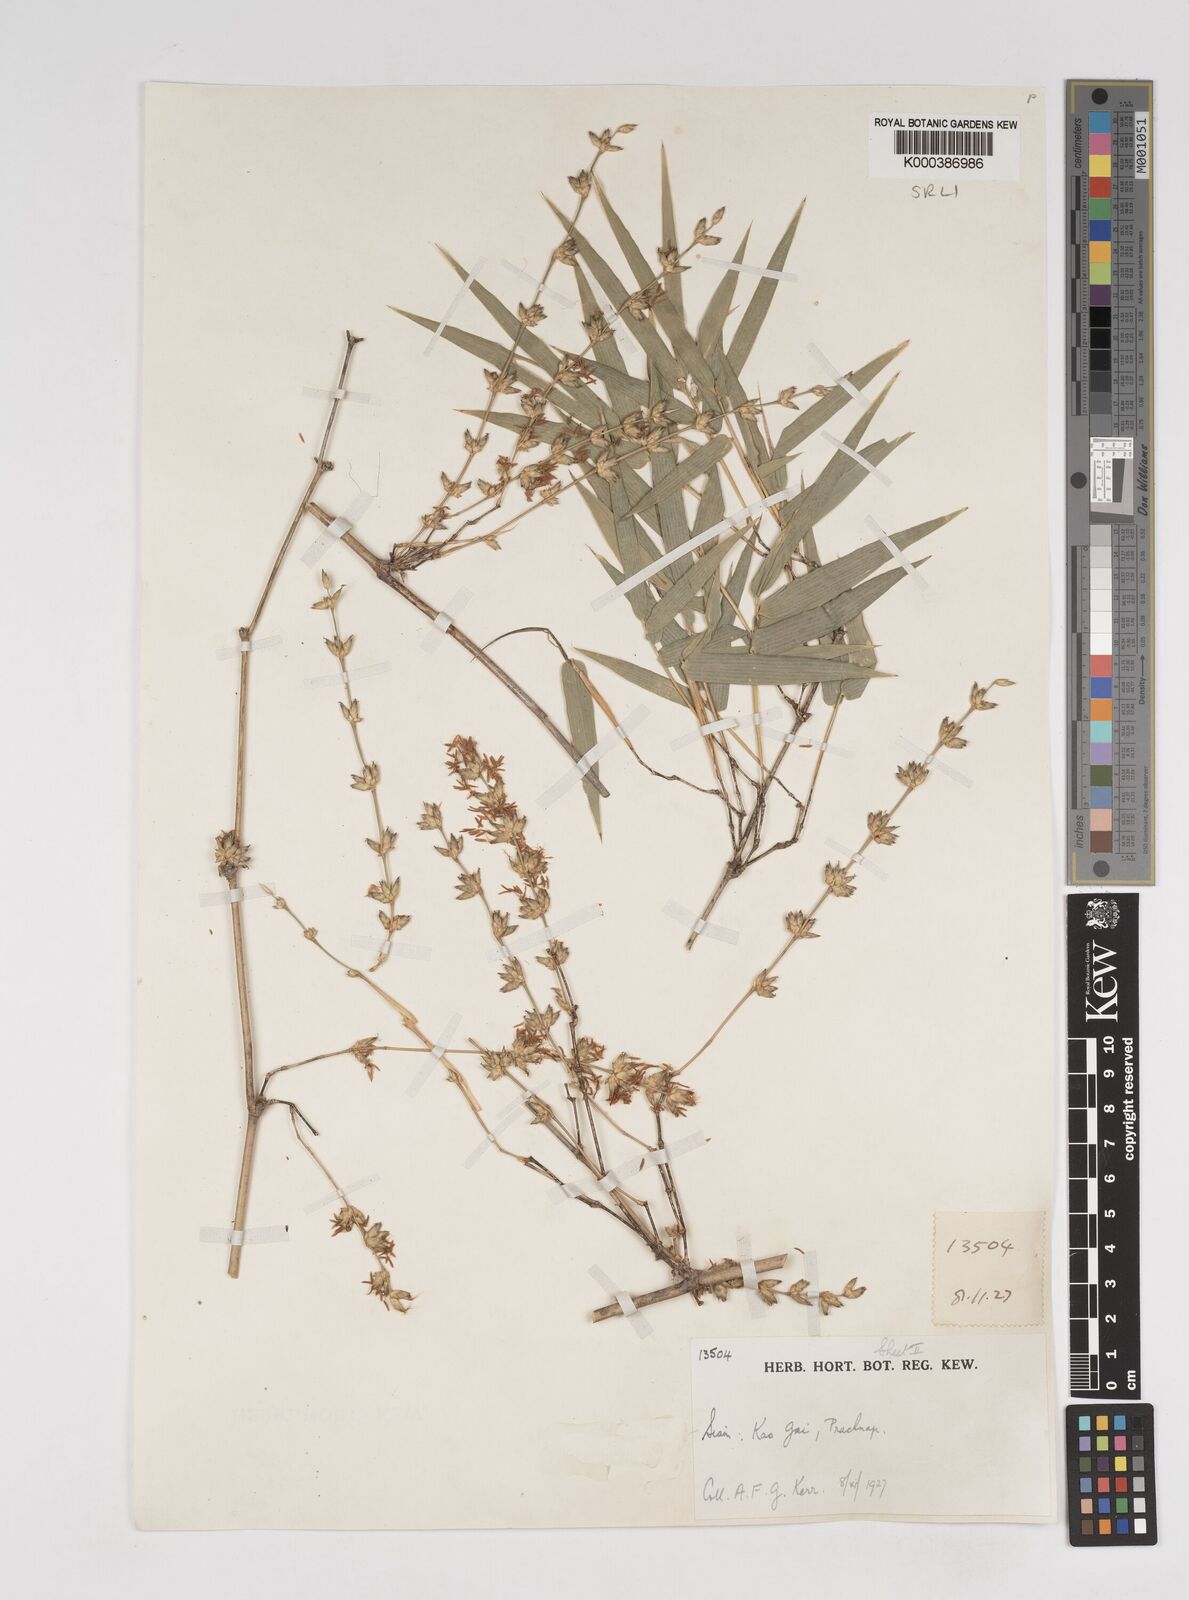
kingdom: Plantae
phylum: Tracheophyta
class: Liliopsida
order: Poales
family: Poaceae
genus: Dendrocalamus
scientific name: Dendrocalamus membranaceus
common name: White bamboo
